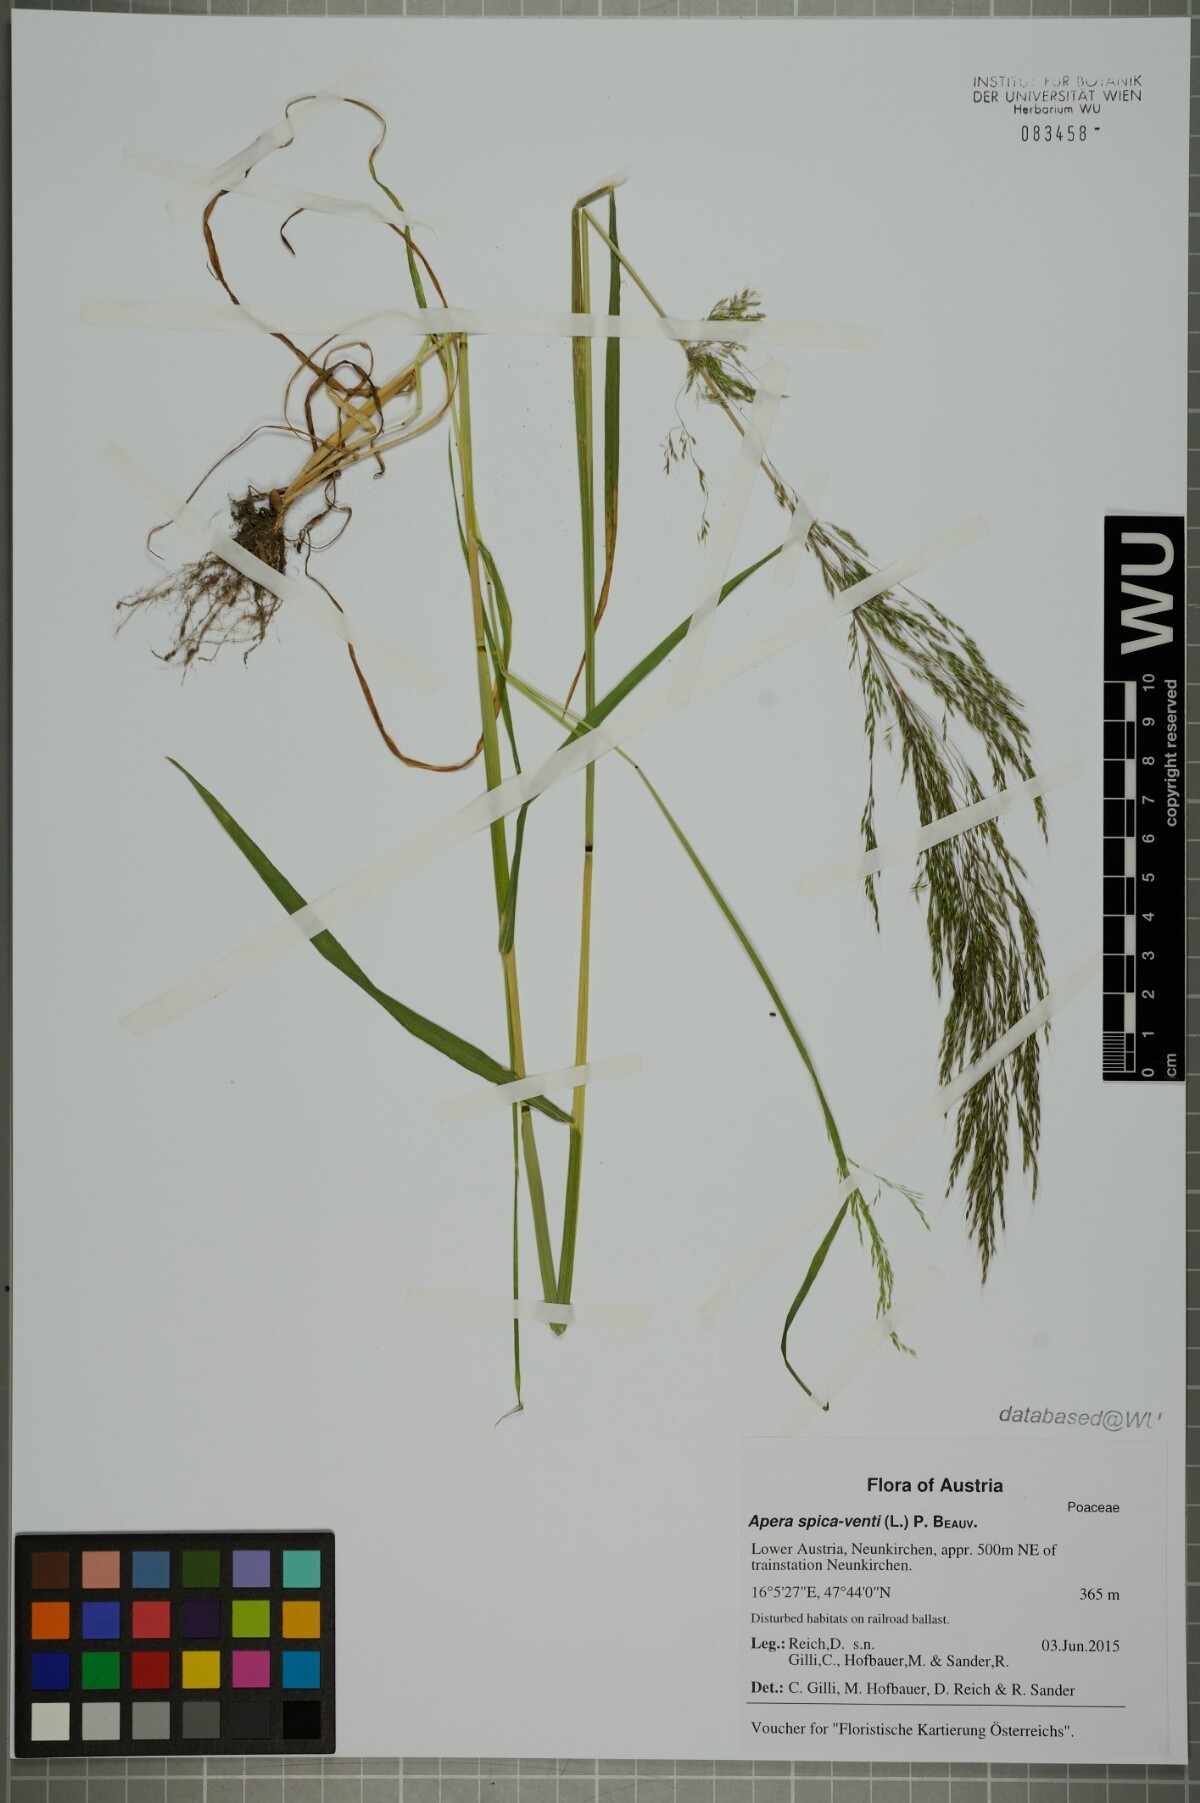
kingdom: Plantae
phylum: Tracheophyta
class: Liliopsida
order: Poales
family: Poaceae
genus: Apera
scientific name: Apera spica-venti
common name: Loose silky-bent
